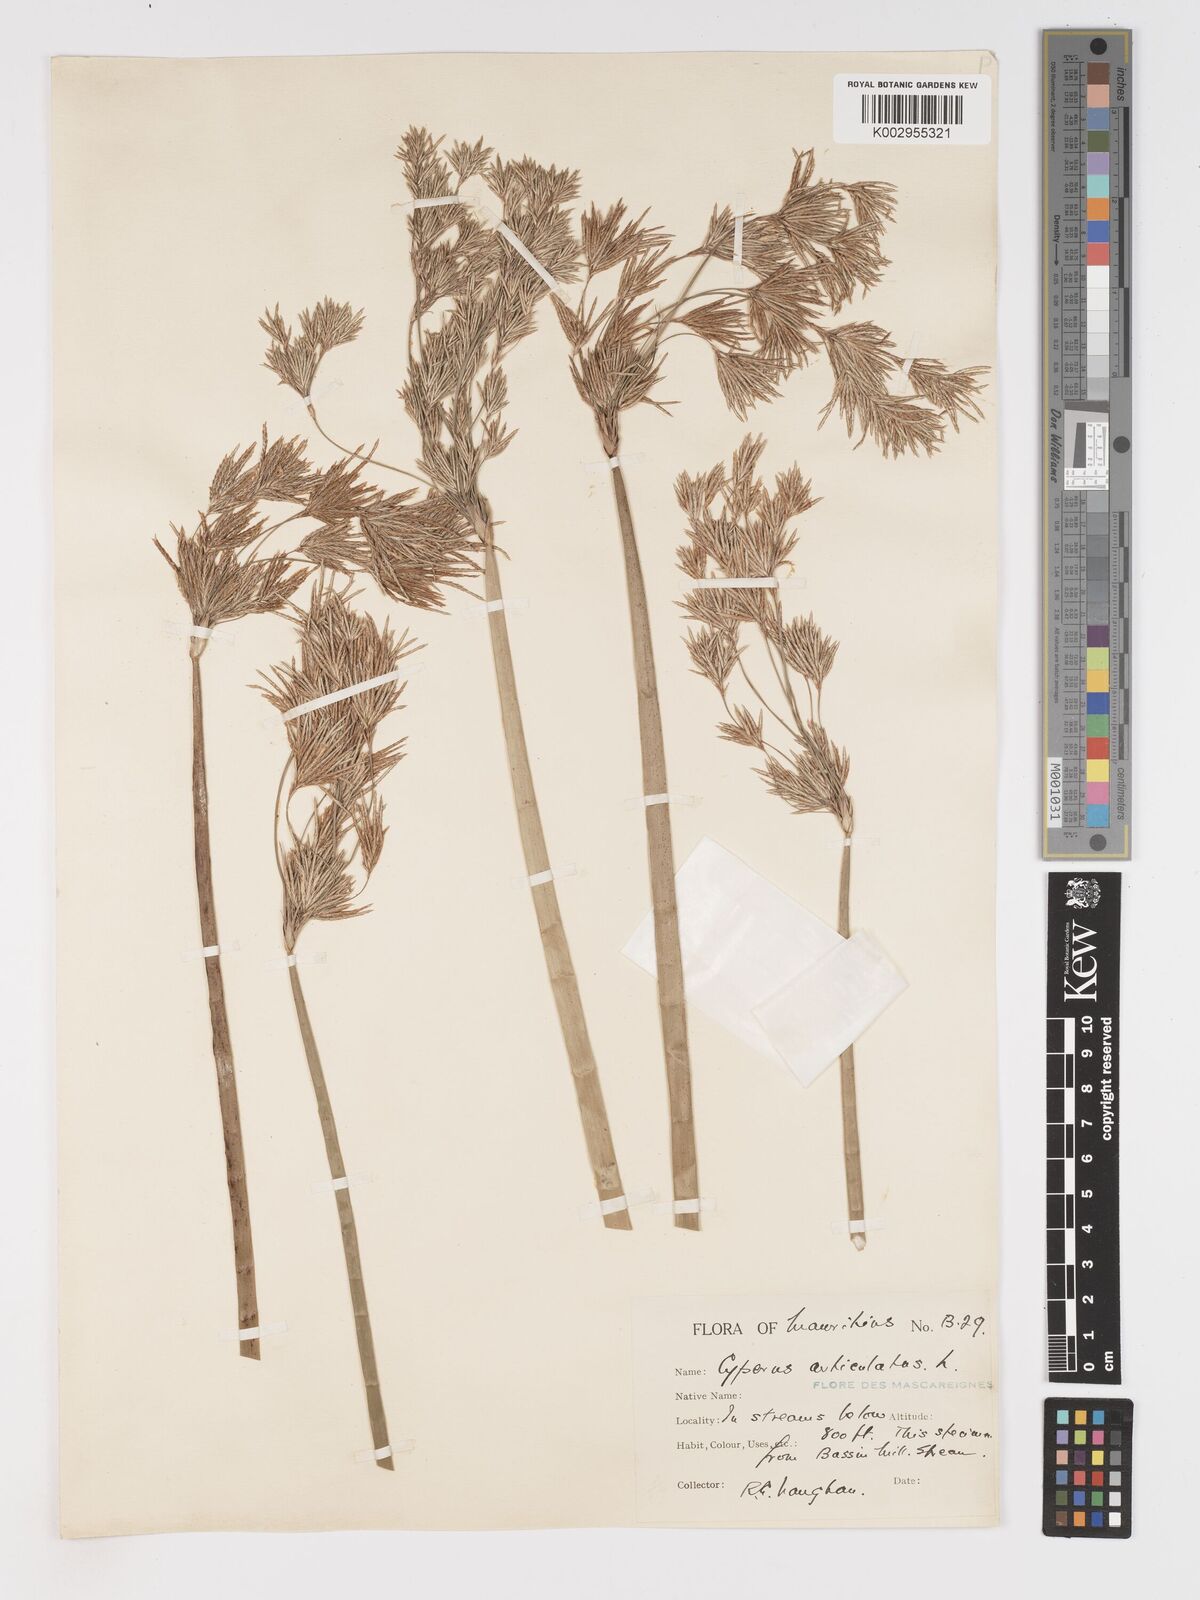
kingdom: Plantae
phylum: Tracheophyta
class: Liliopsida
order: Poales
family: Cyperaceae
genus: Cyperus
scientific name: Cyperus articulatus
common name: Jointed flatsedge
